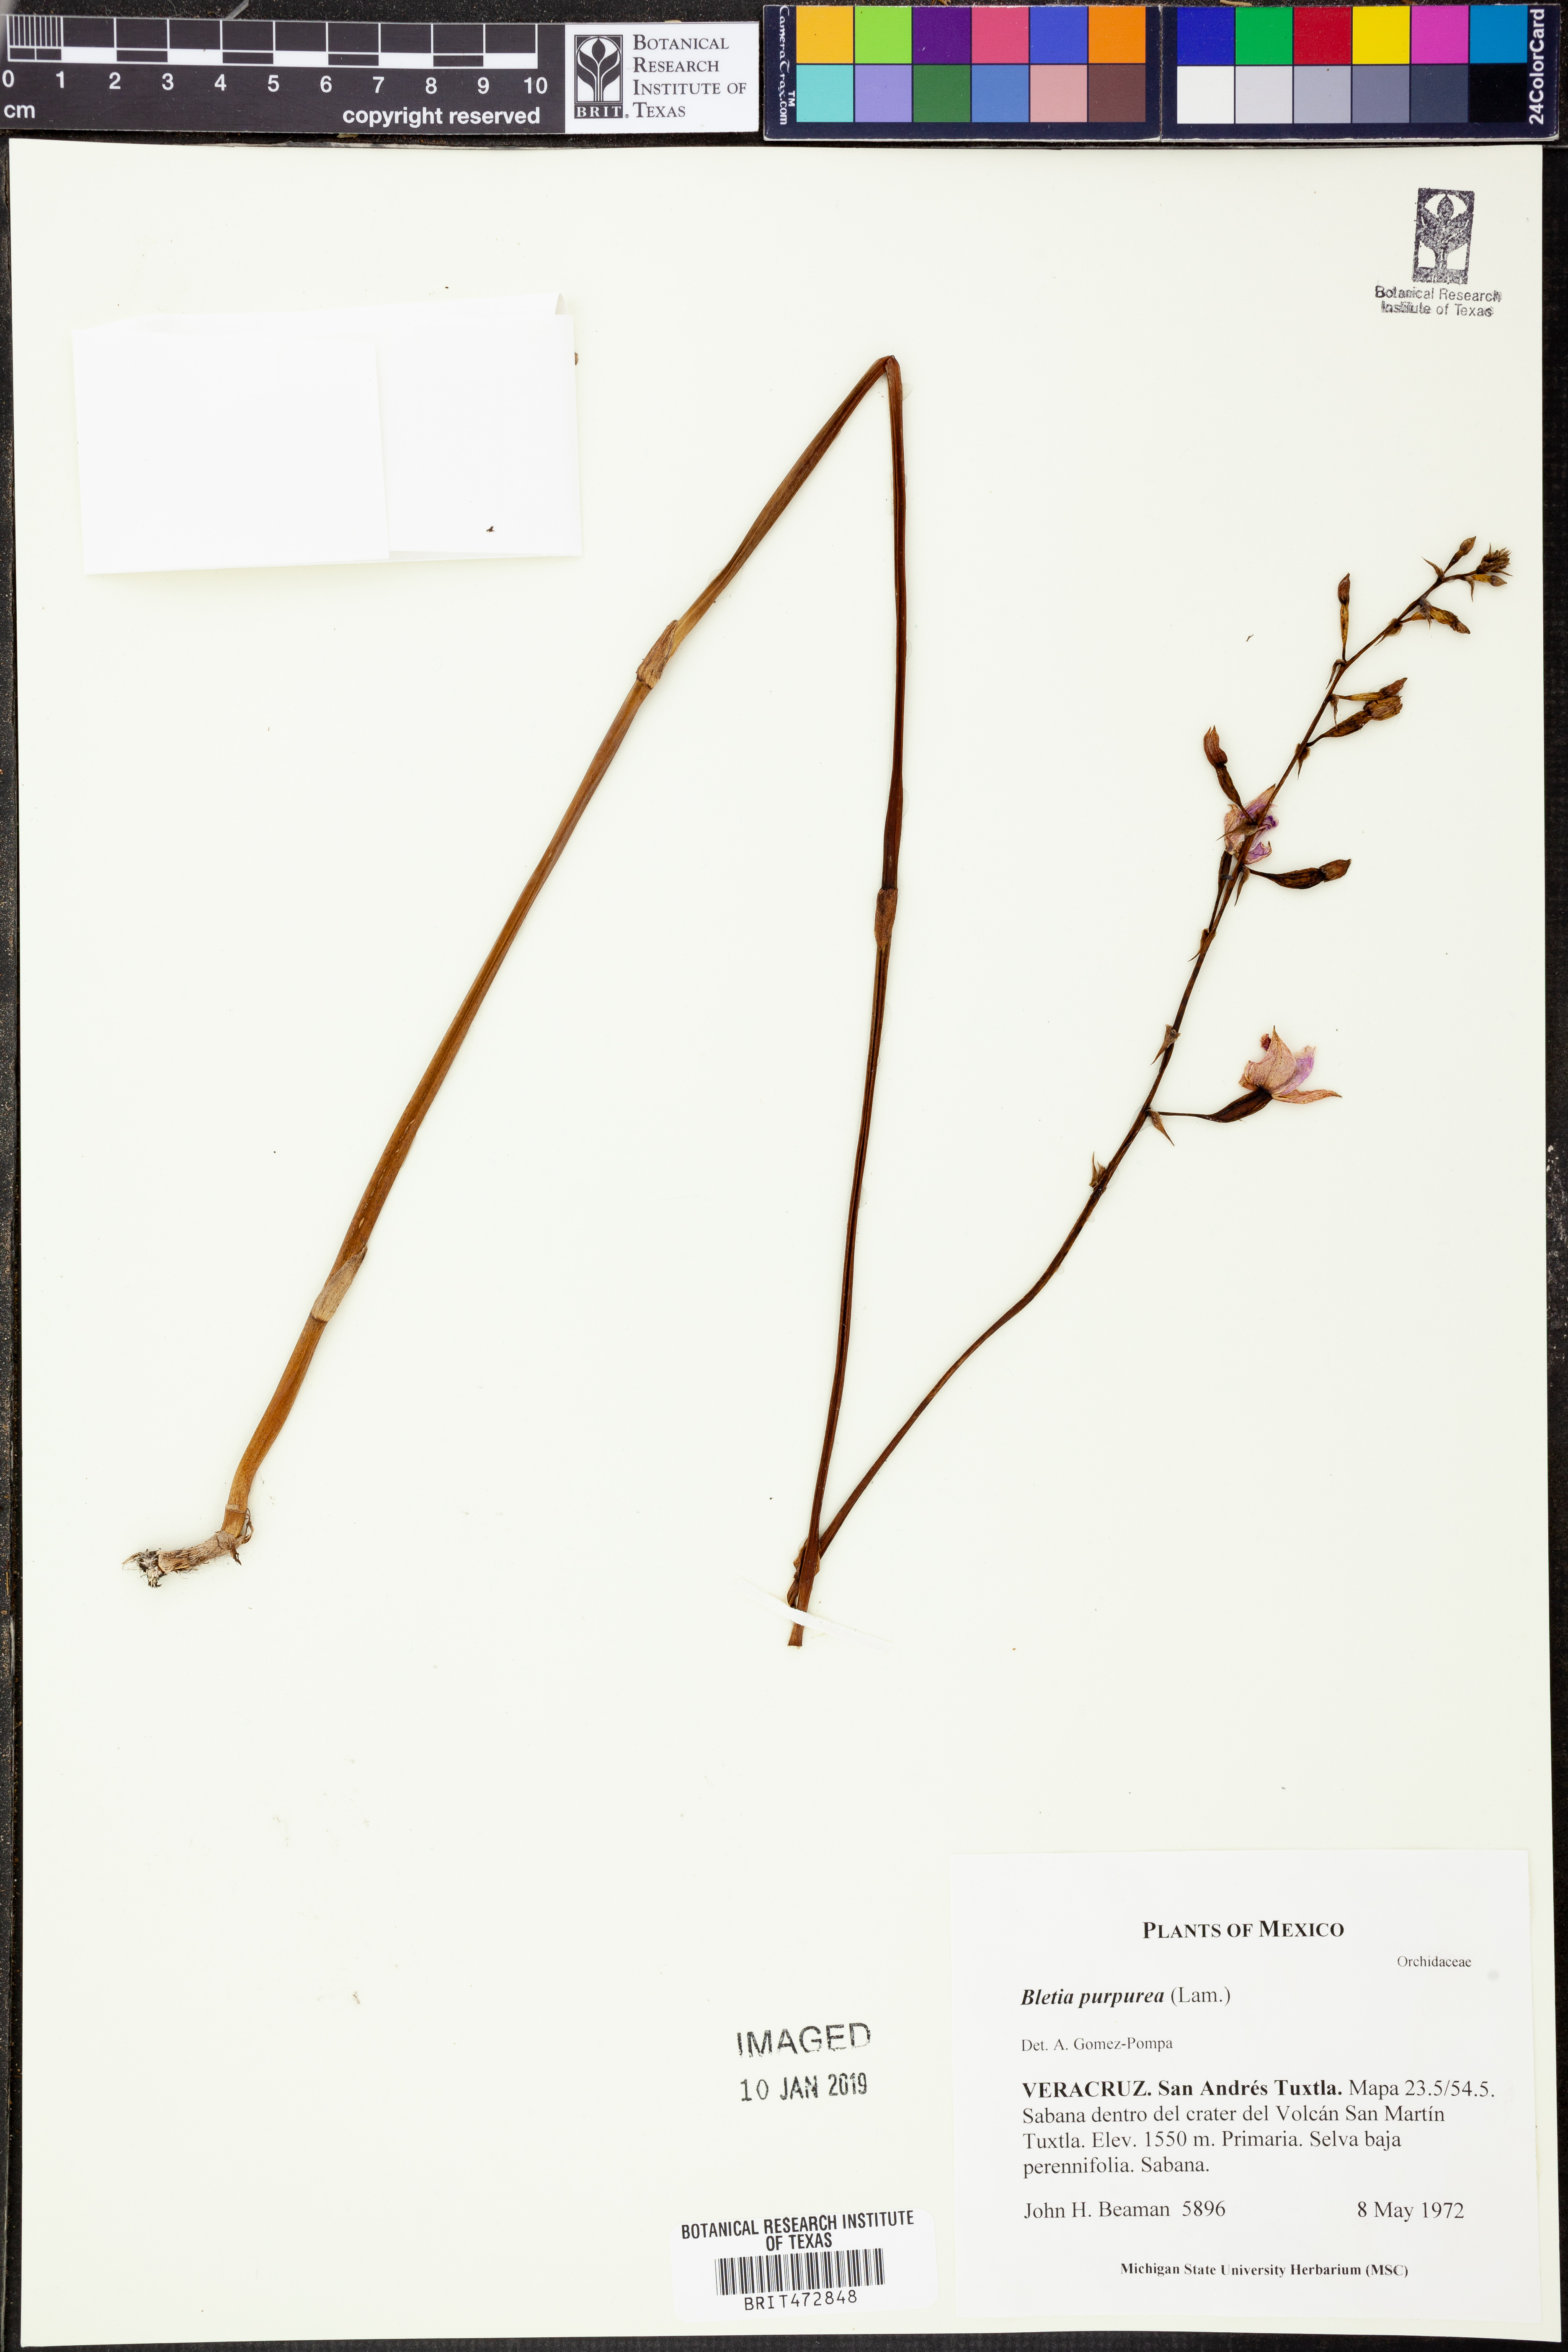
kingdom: Plantae
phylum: Tracheophyta
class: Liliopsida
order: Asparagales
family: Orchidaceae
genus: Bletia
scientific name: Bletia purpurea
